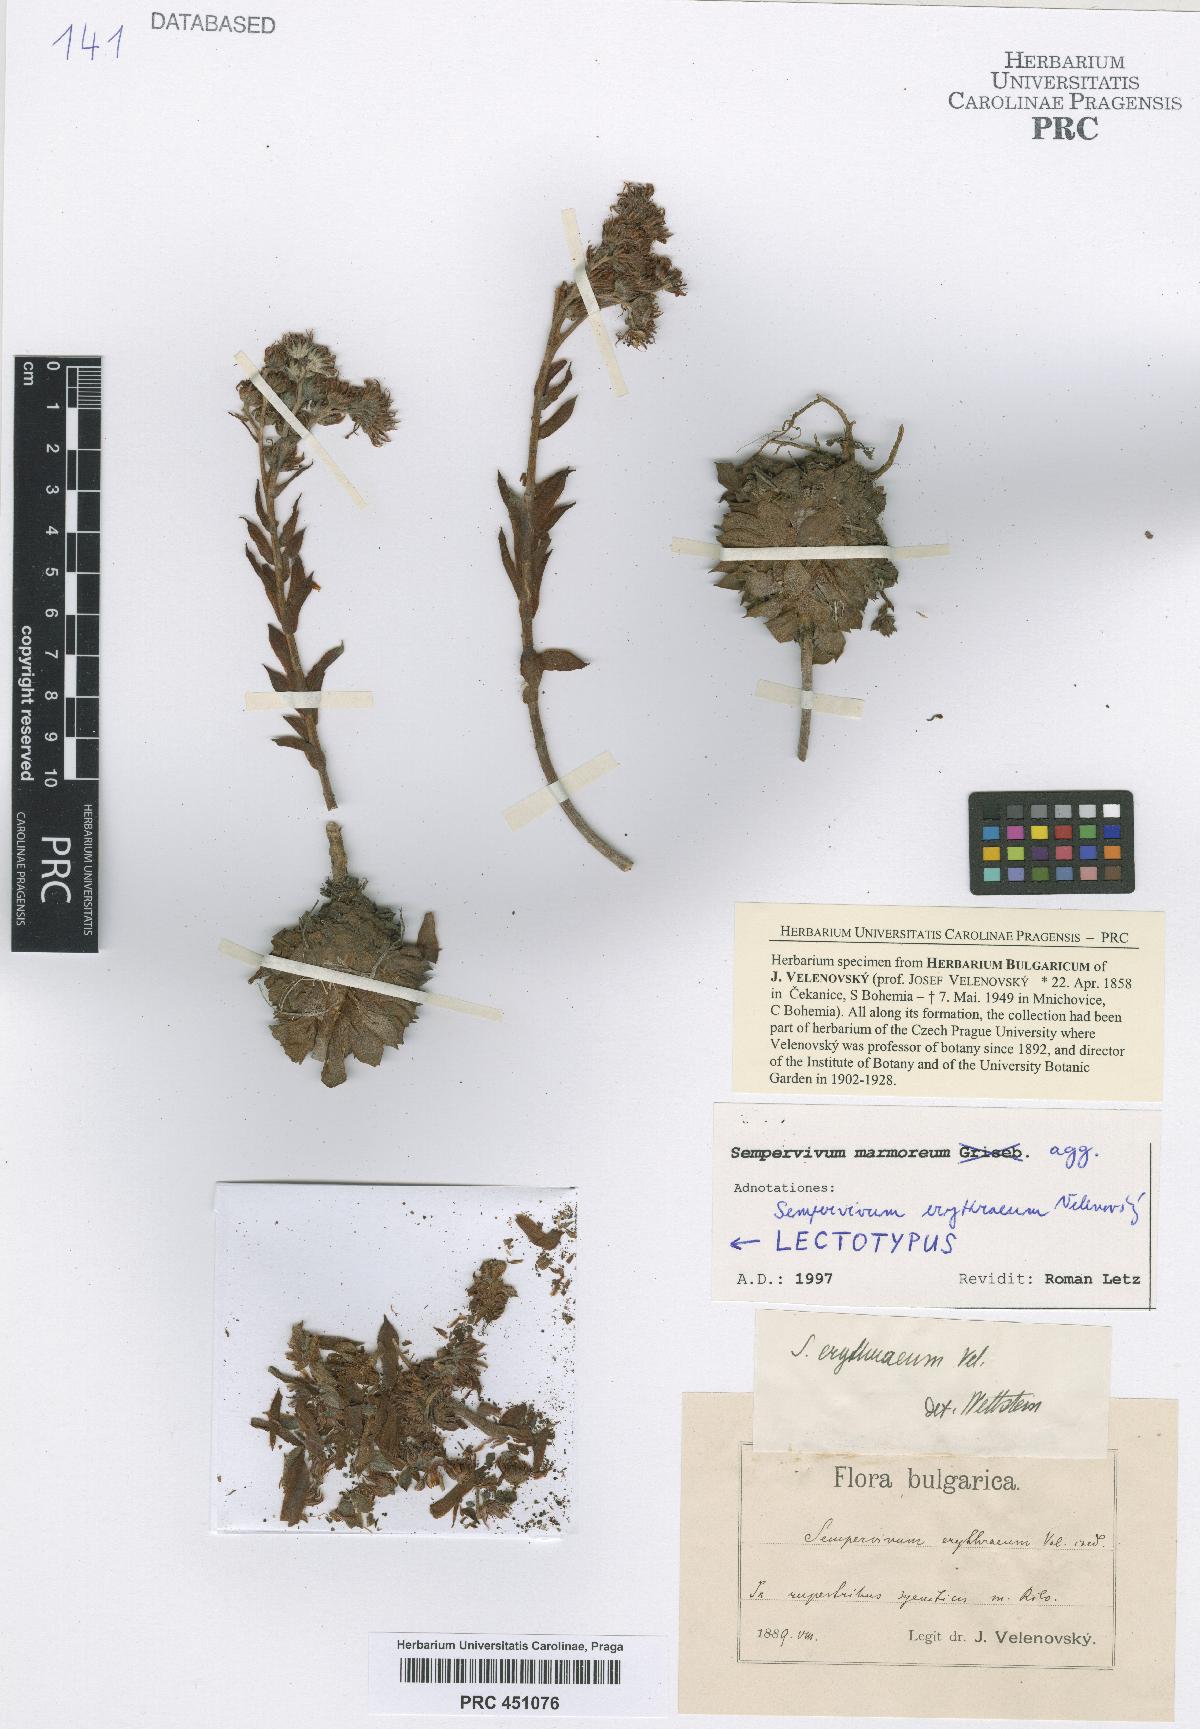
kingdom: Plantae
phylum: Tracheophyta
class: Magnoliopsida
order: Saxifragales
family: Crassulaceae
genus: Sempervivum
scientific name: Sempervivum marmoreum
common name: Houseleek
